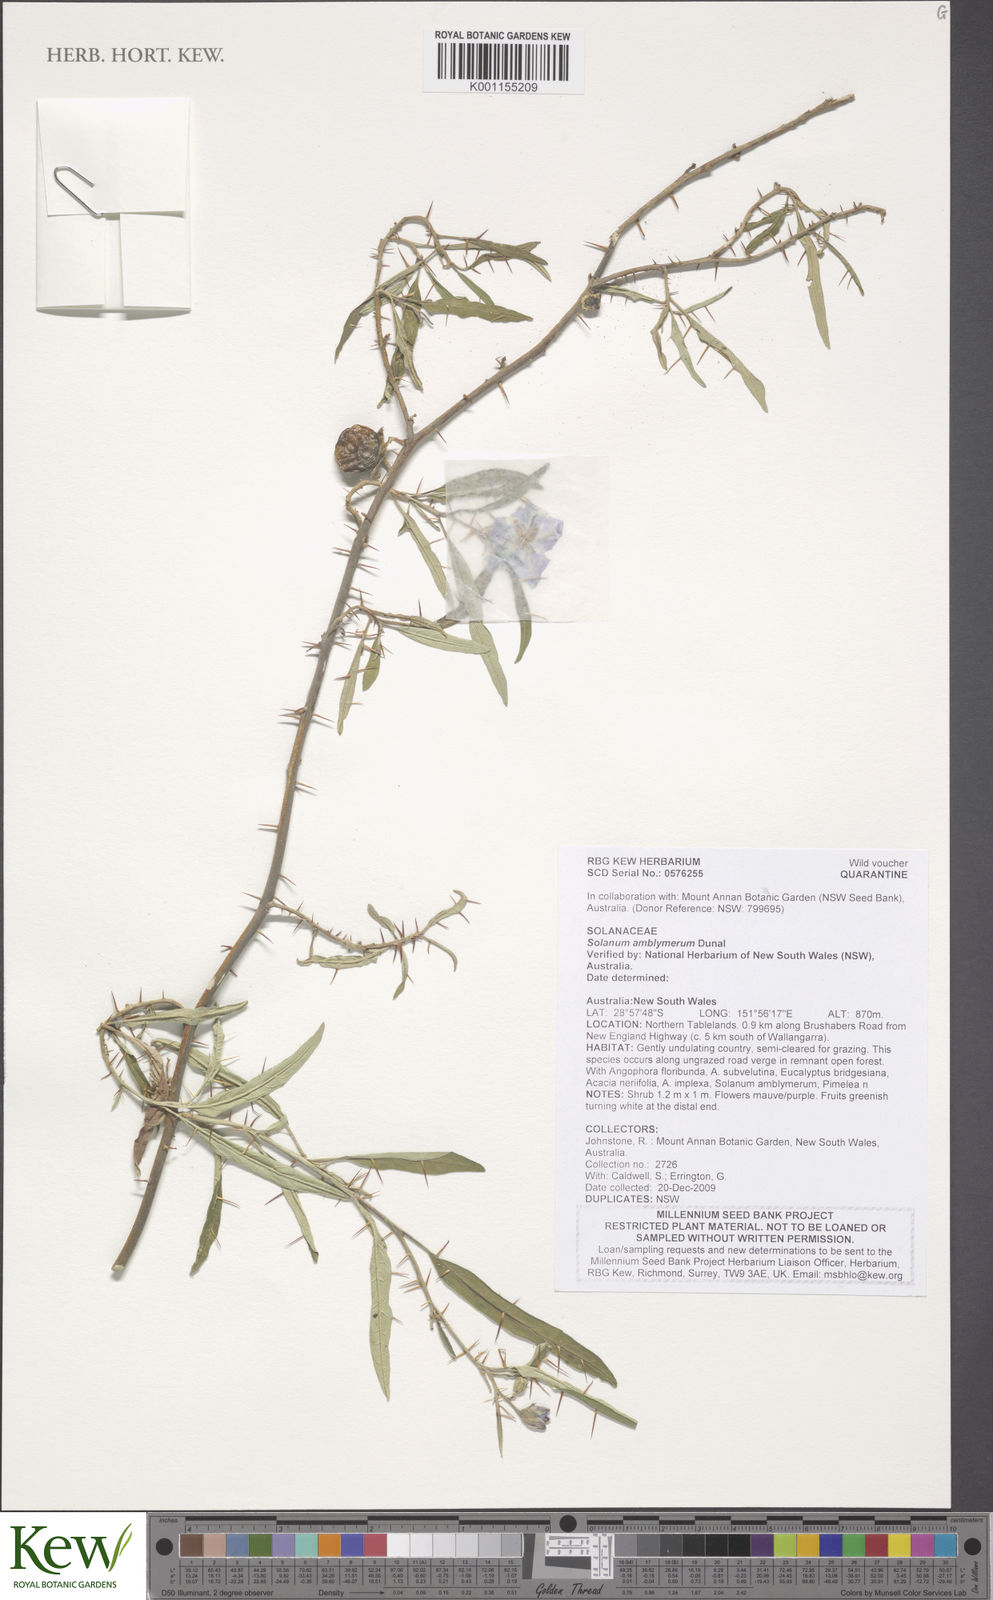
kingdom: Plantae
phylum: Tracheophyta
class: Magnoliopsida
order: Solanales
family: Solanaceae
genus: Solanum
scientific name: Solanum amblymerum
